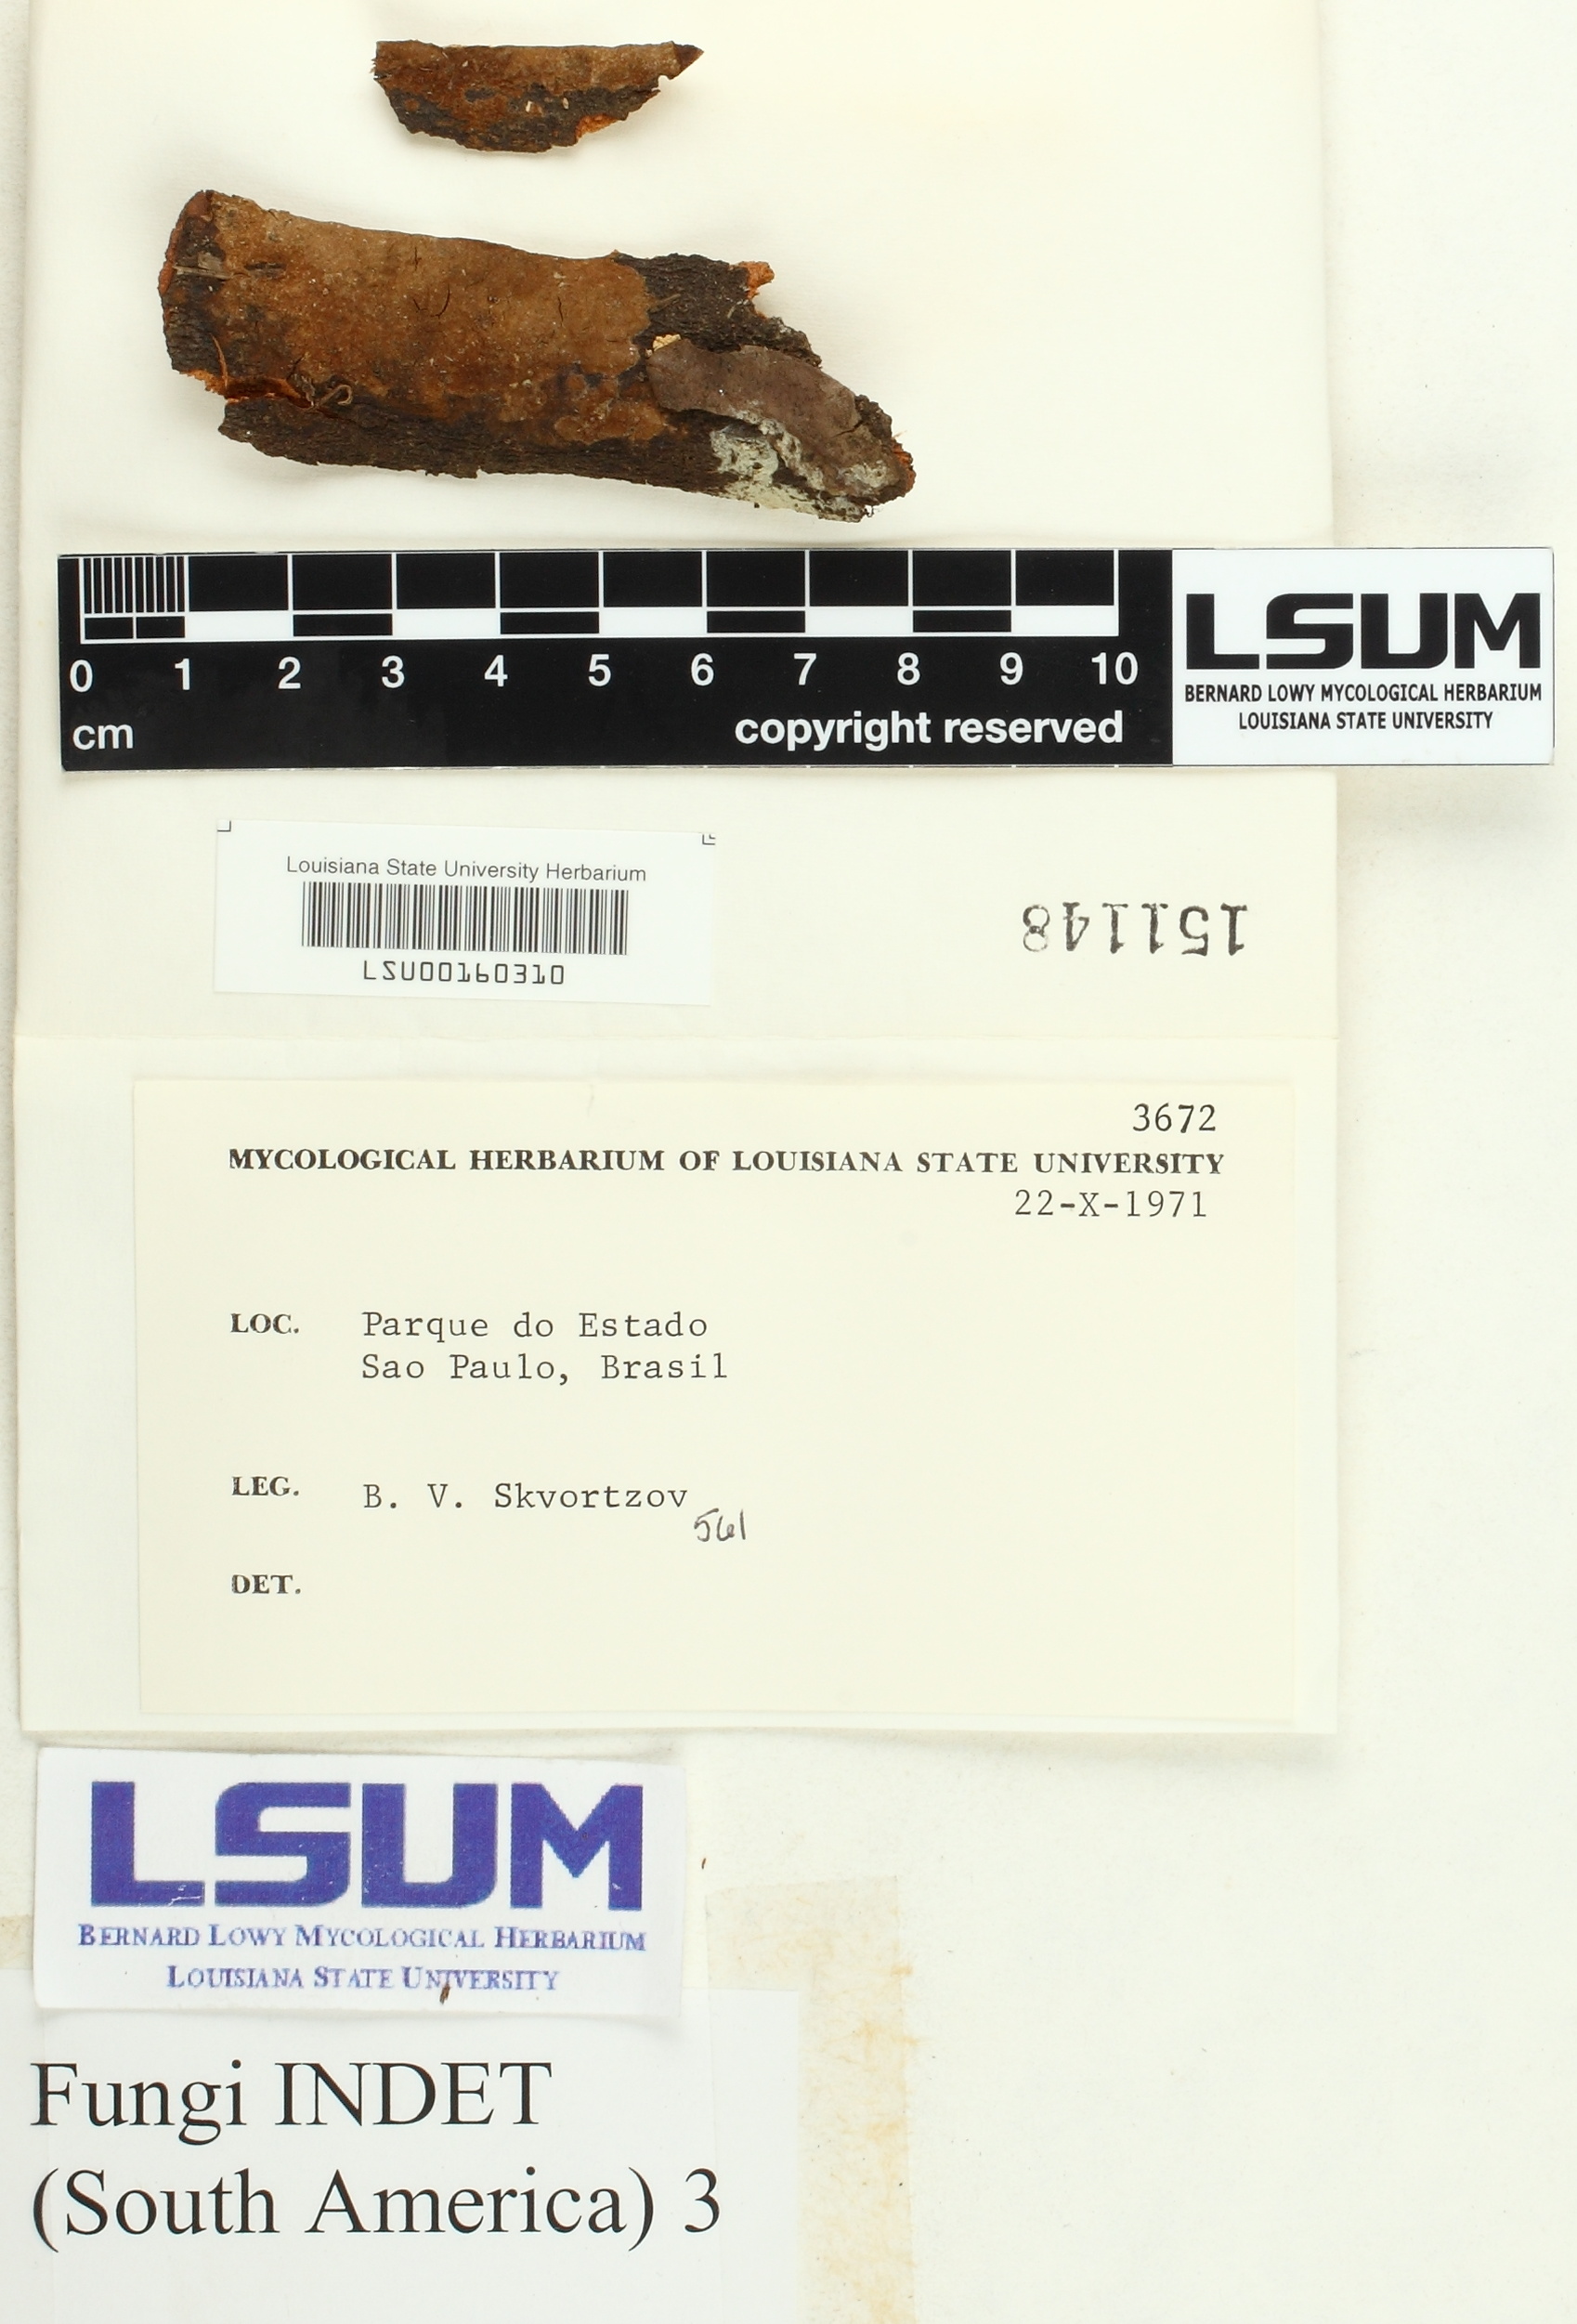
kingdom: Fungi
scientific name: Fungi
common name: Fungi
